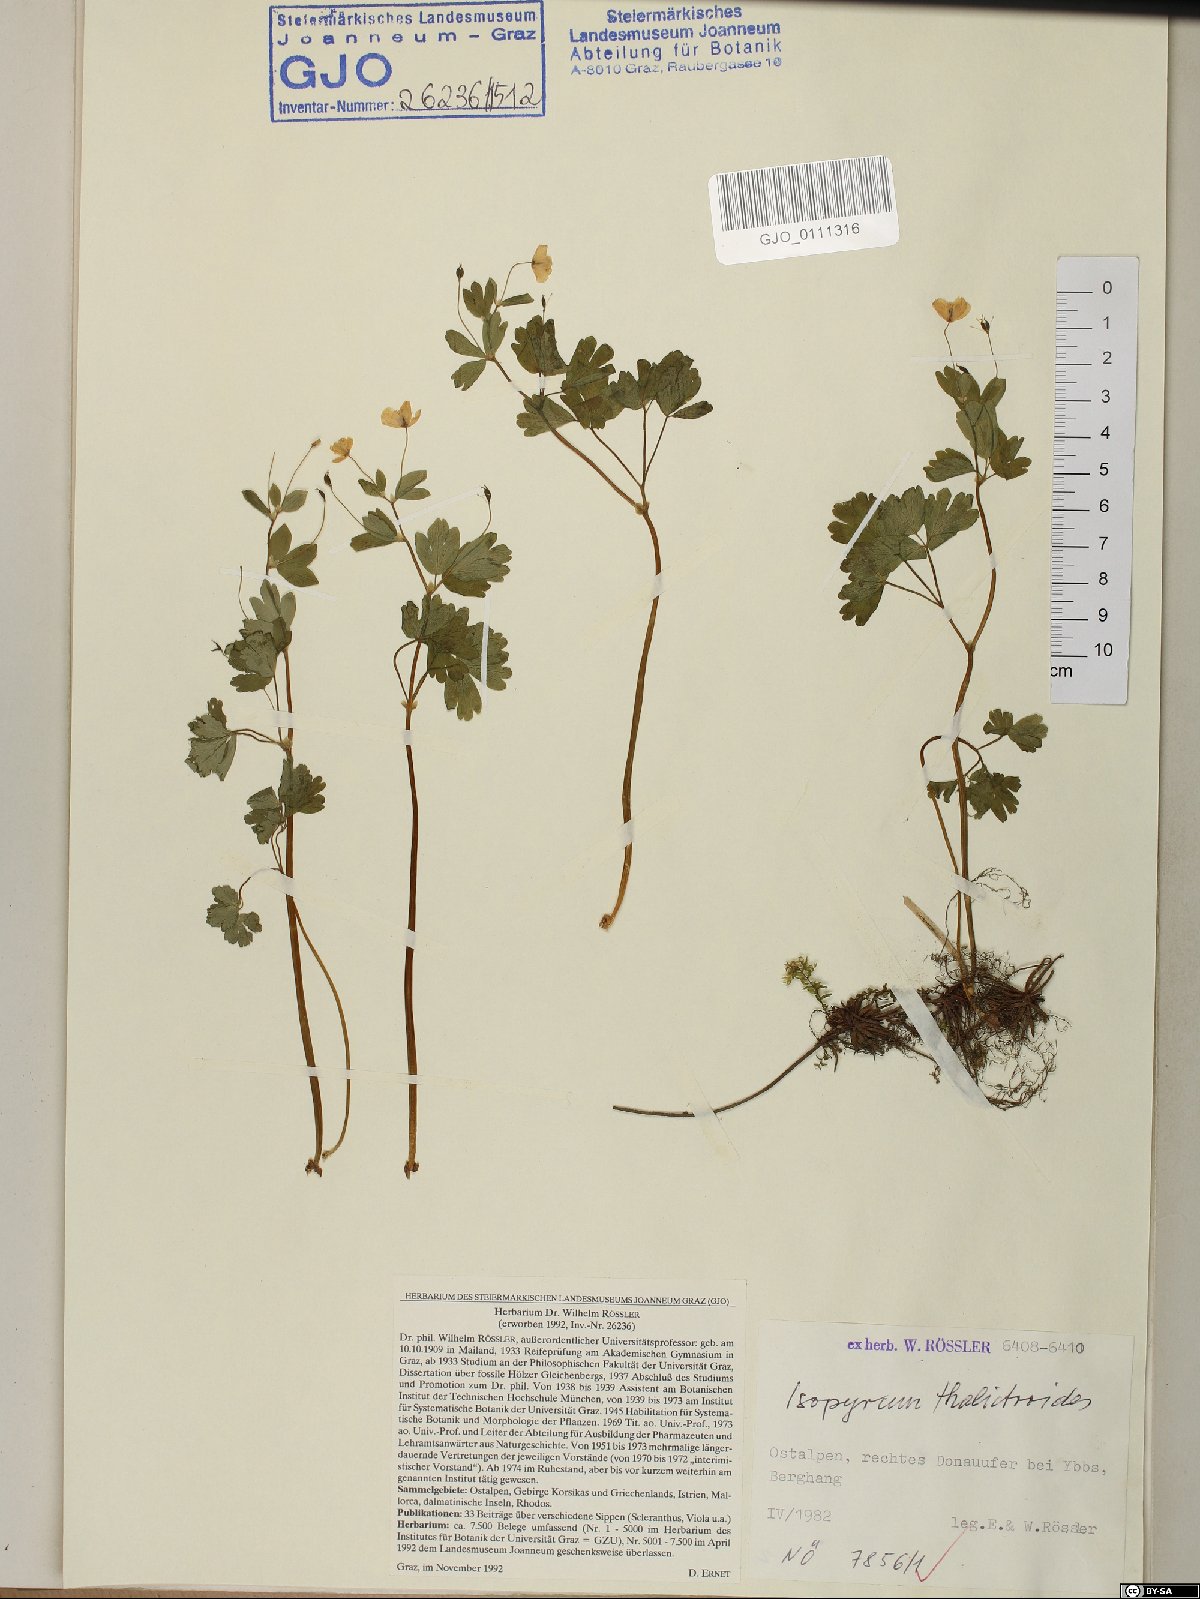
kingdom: Plantae
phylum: Tracheophyta
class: Magnoliopsida
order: Ranunculales
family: Ranunculaceae
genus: Isopyrum
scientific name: Isopyrum thalictroides
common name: Isopyrum
